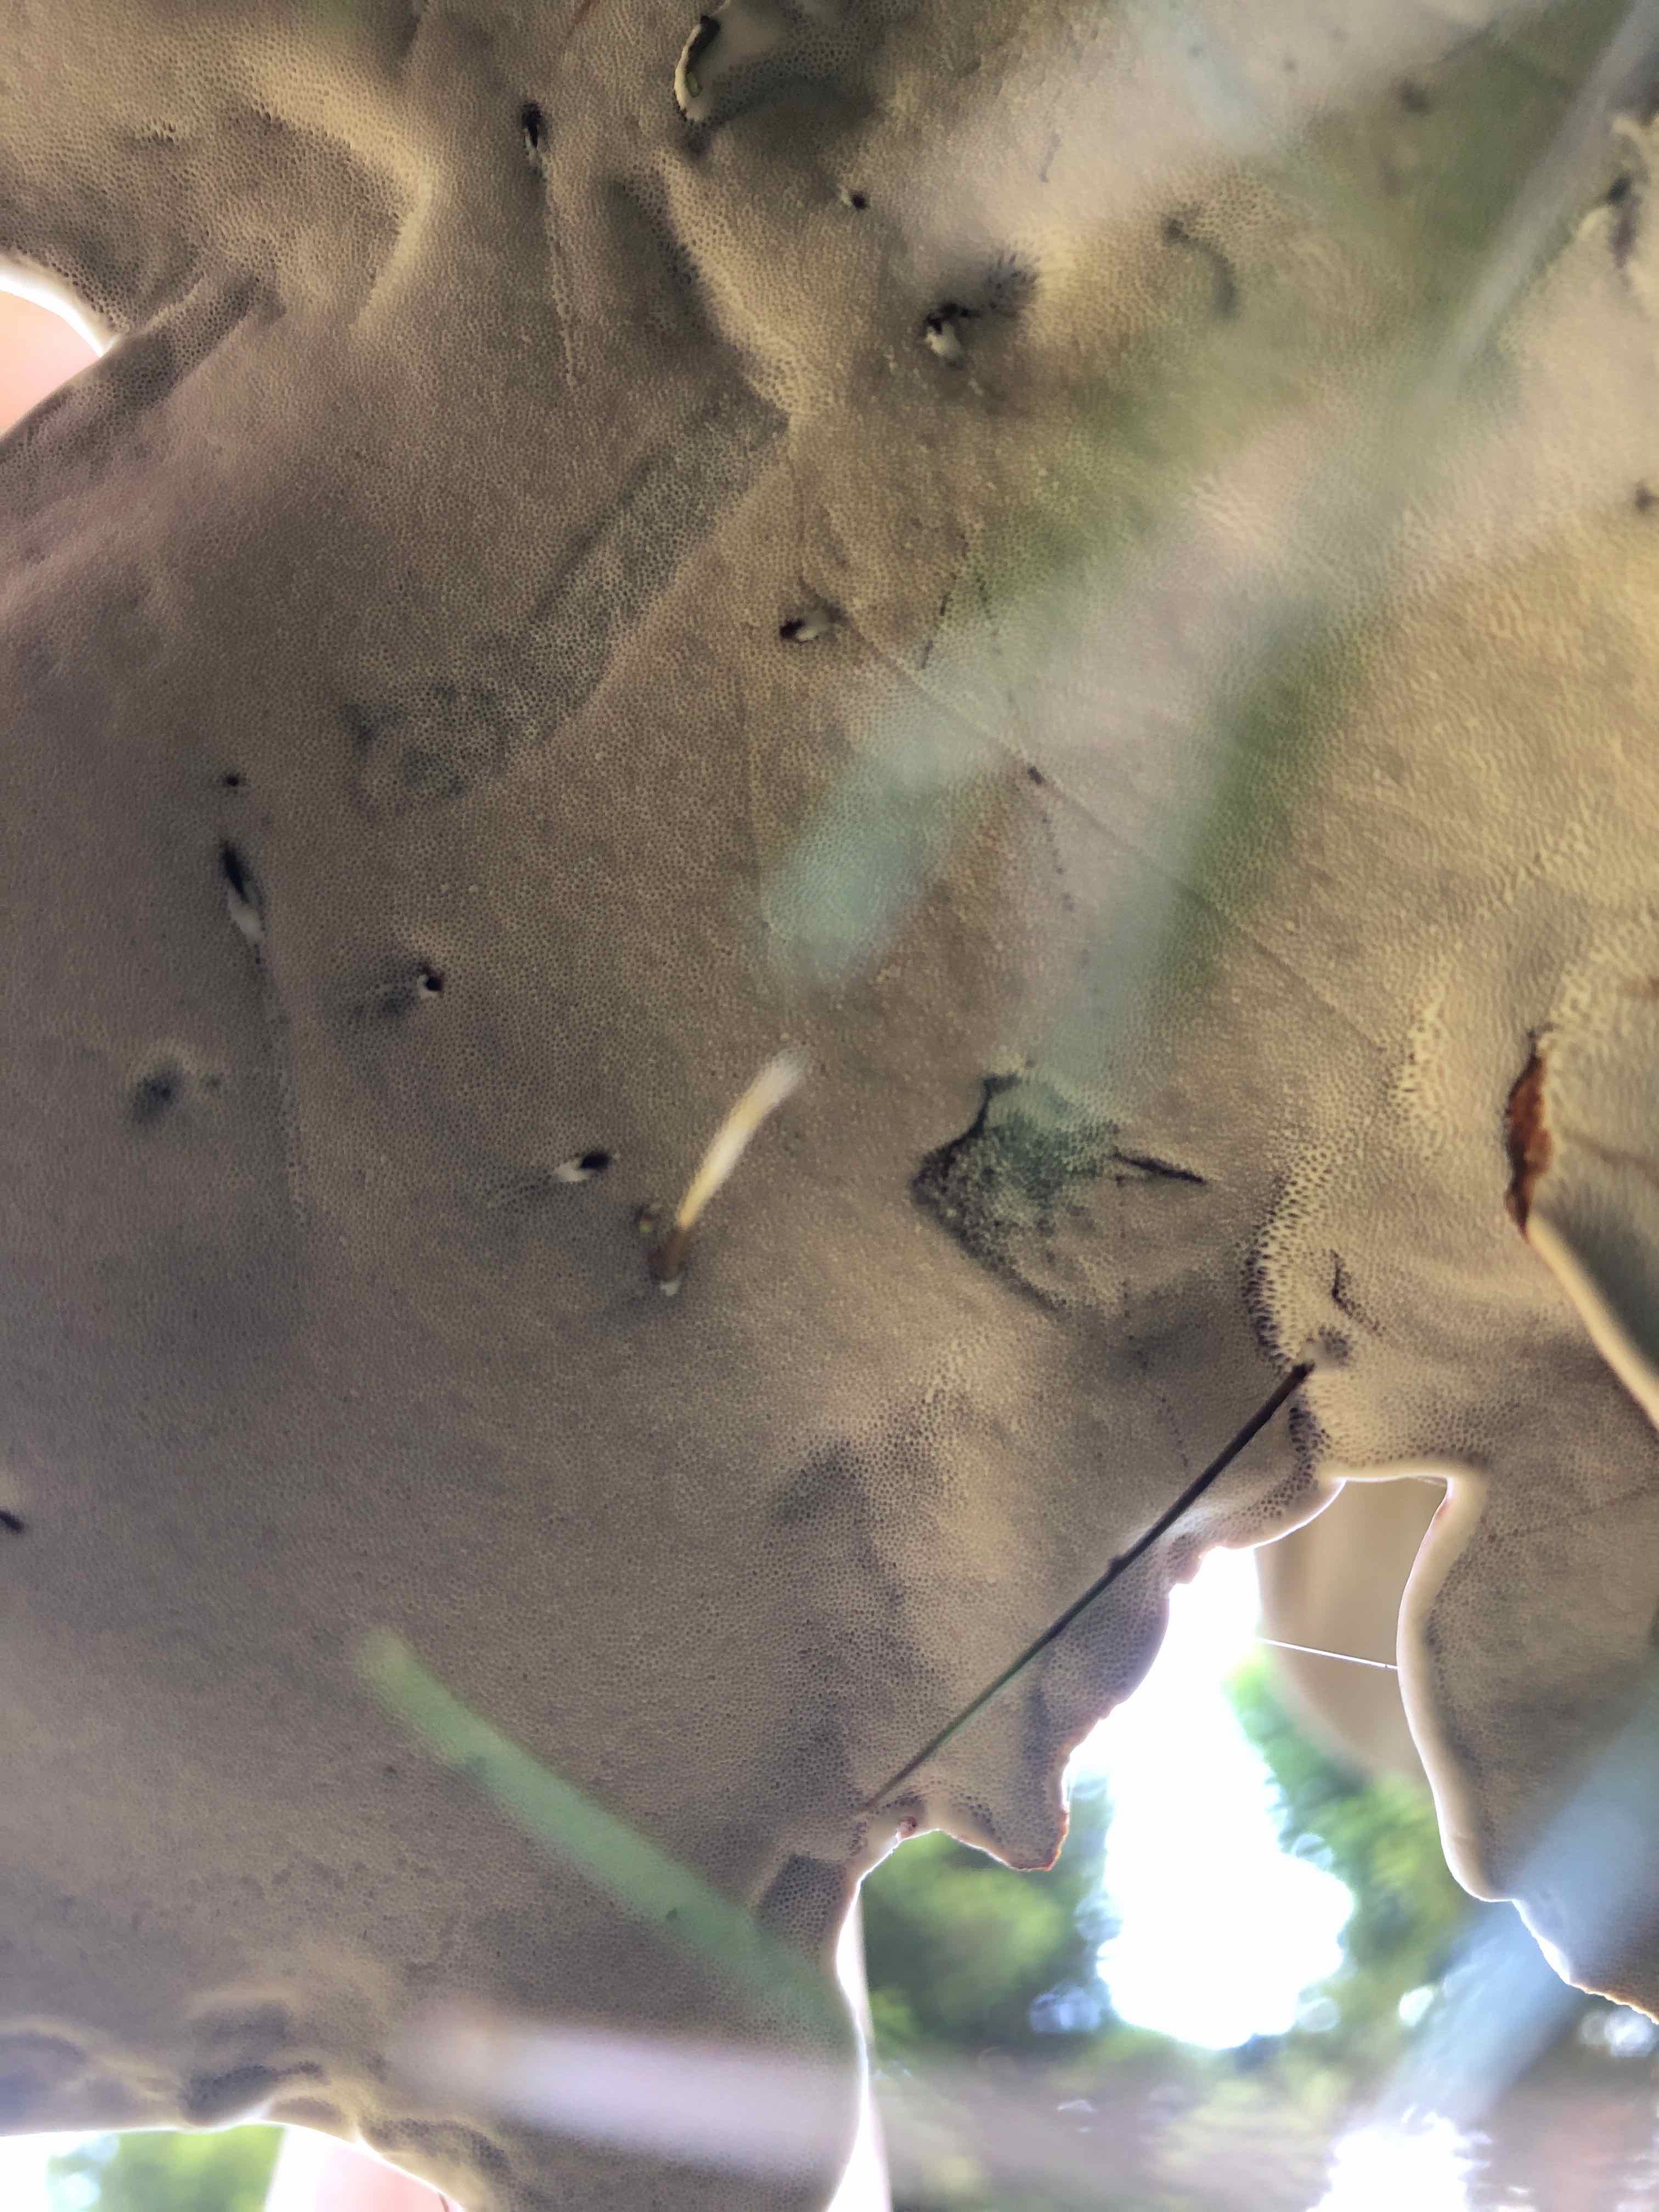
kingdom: Fungi
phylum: Basidiomycota
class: Agaricomycetes
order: Polyporales
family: Polyporaceae
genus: Ganoderma
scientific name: Ganoderma lucidum
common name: skinnende lakporesvamp
